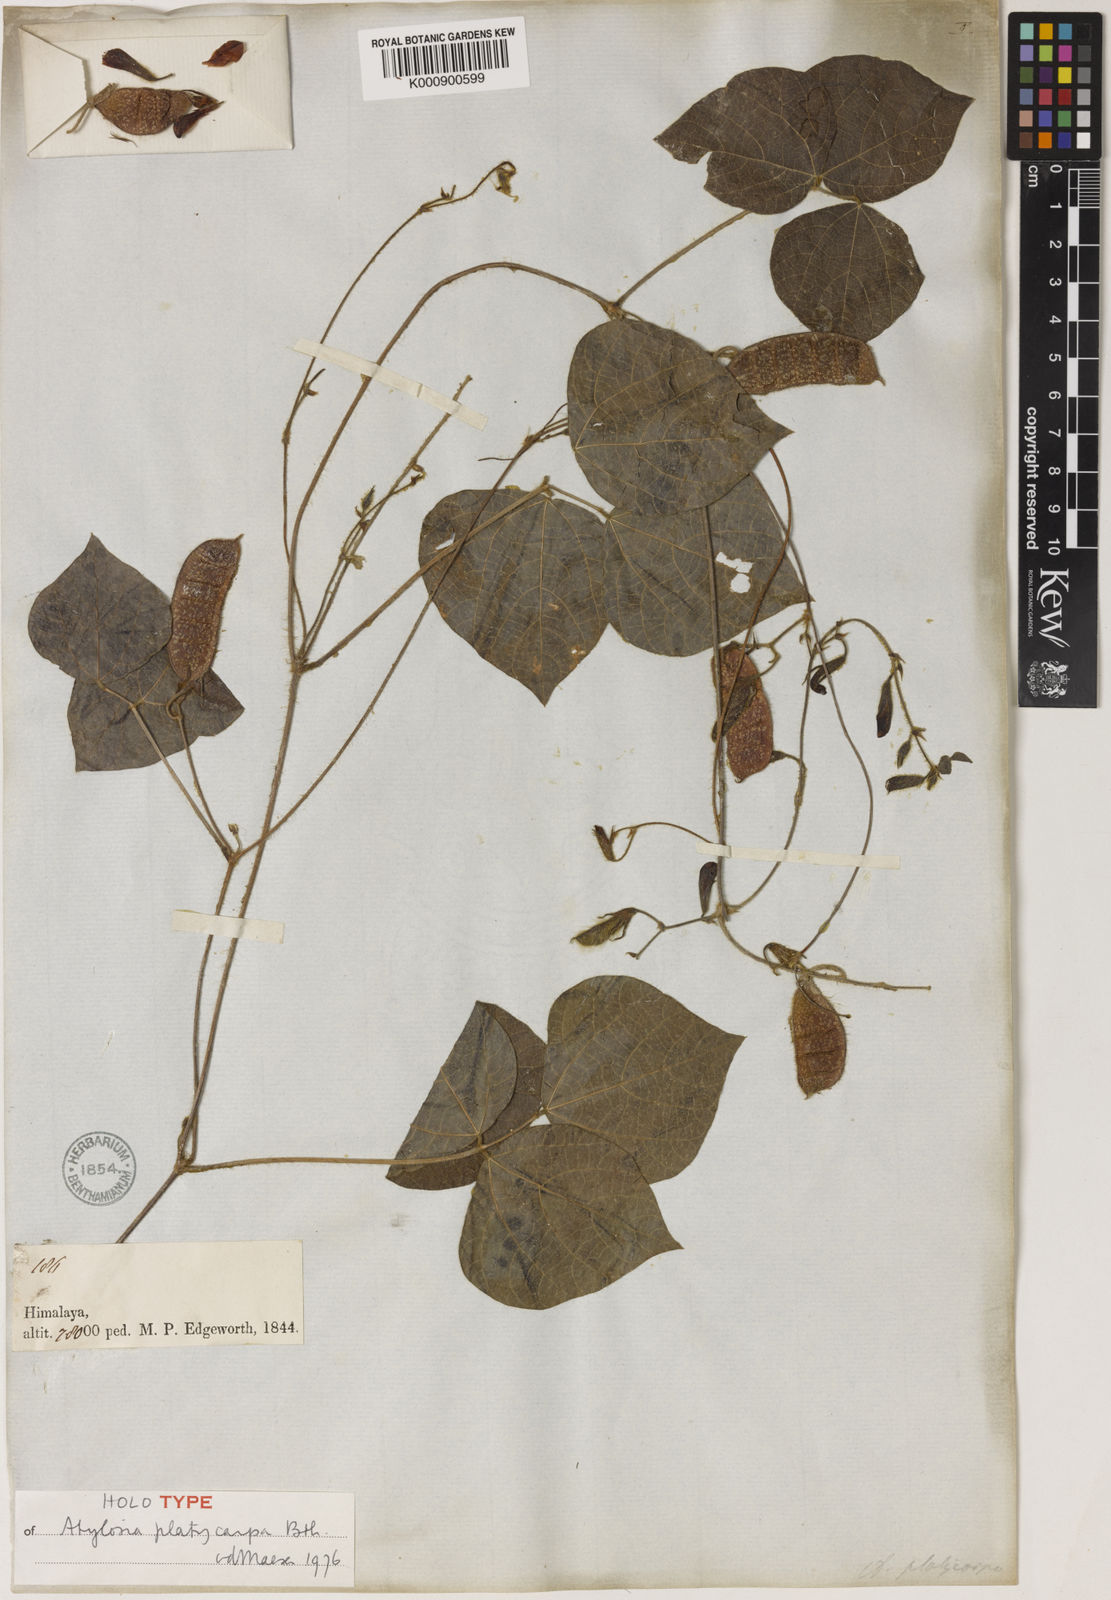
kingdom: Plantae
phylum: Tracheophyta
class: Magnoliopsida
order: Fabales
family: Fabaceae
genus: Cajanus
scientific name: Cajanus platycarpus
